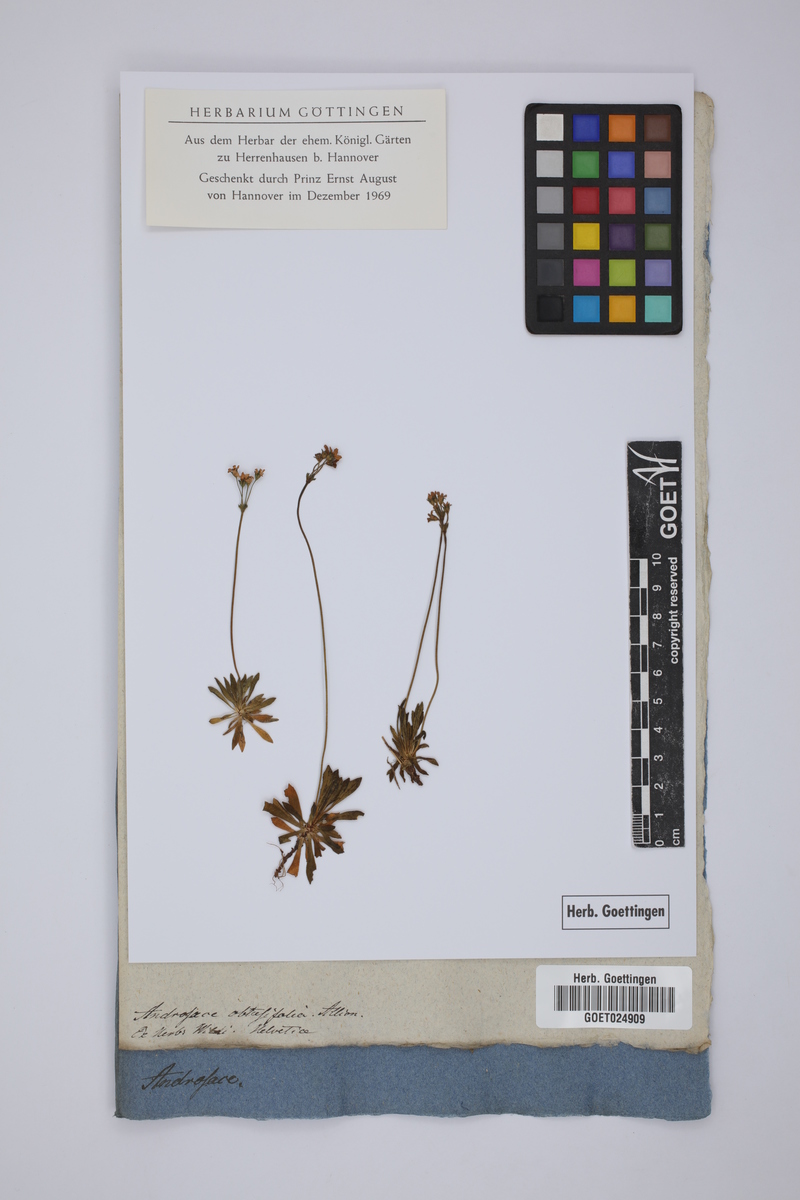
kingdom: Plantae
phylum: Tracheophyta
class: Magnoliopsida
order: Ericales
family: Primulaceae
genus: Androsace
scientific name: Androsace obtusifolia
